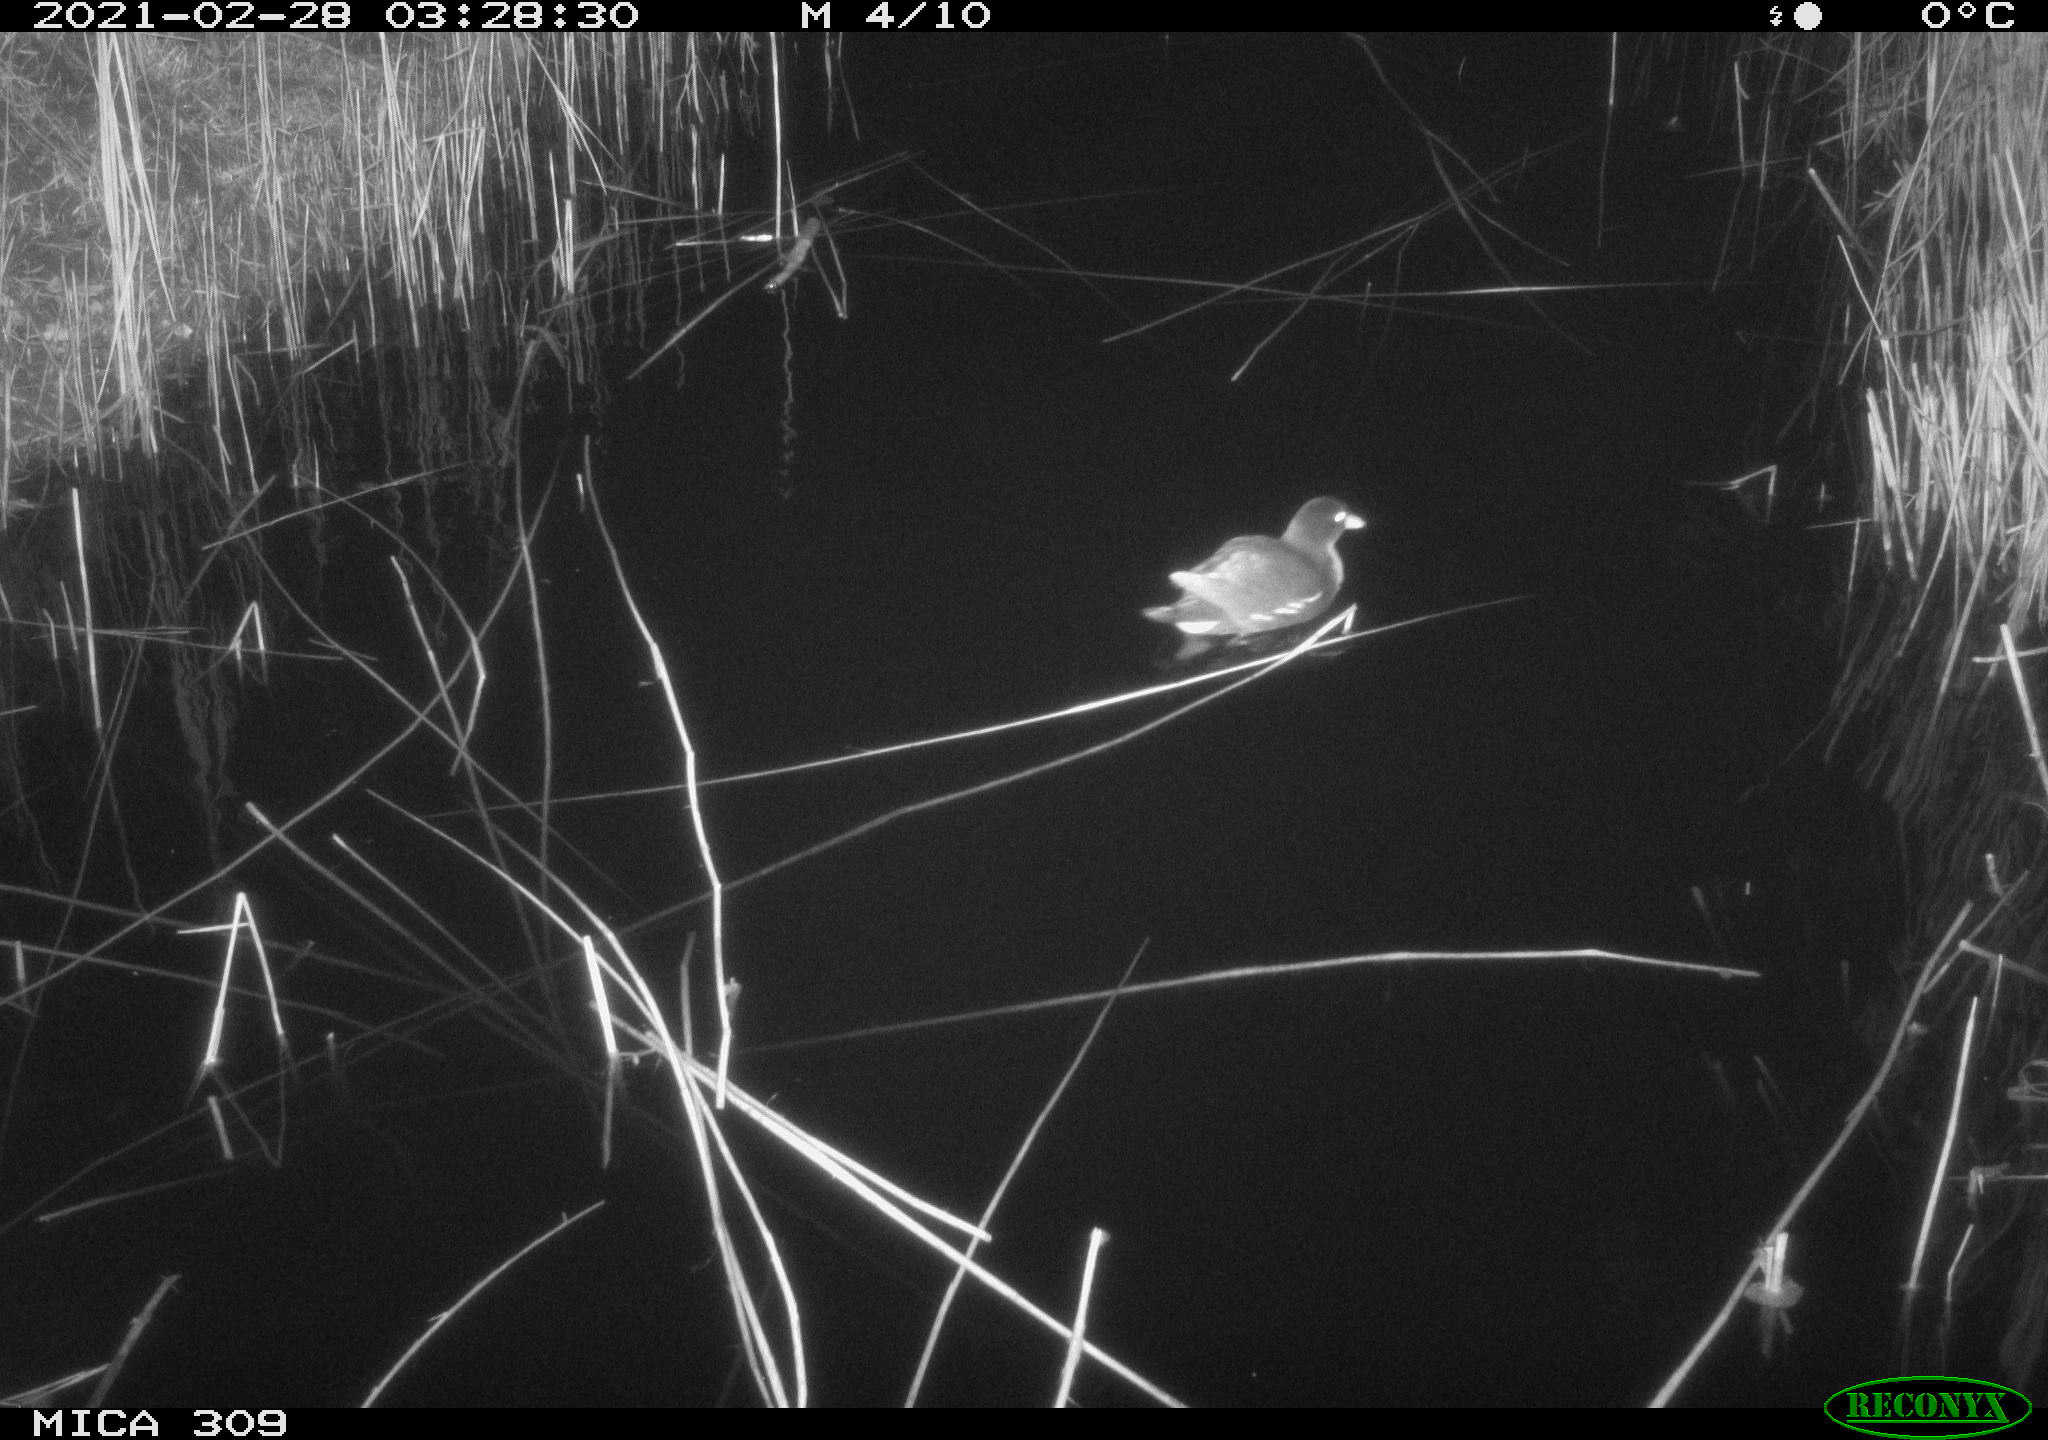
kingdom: Animalia
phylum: Chordata
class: Aves
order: Gruiformes
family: Rallidae
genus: Gallinula
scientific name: Gallinula chloropus
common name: Common moorhen
